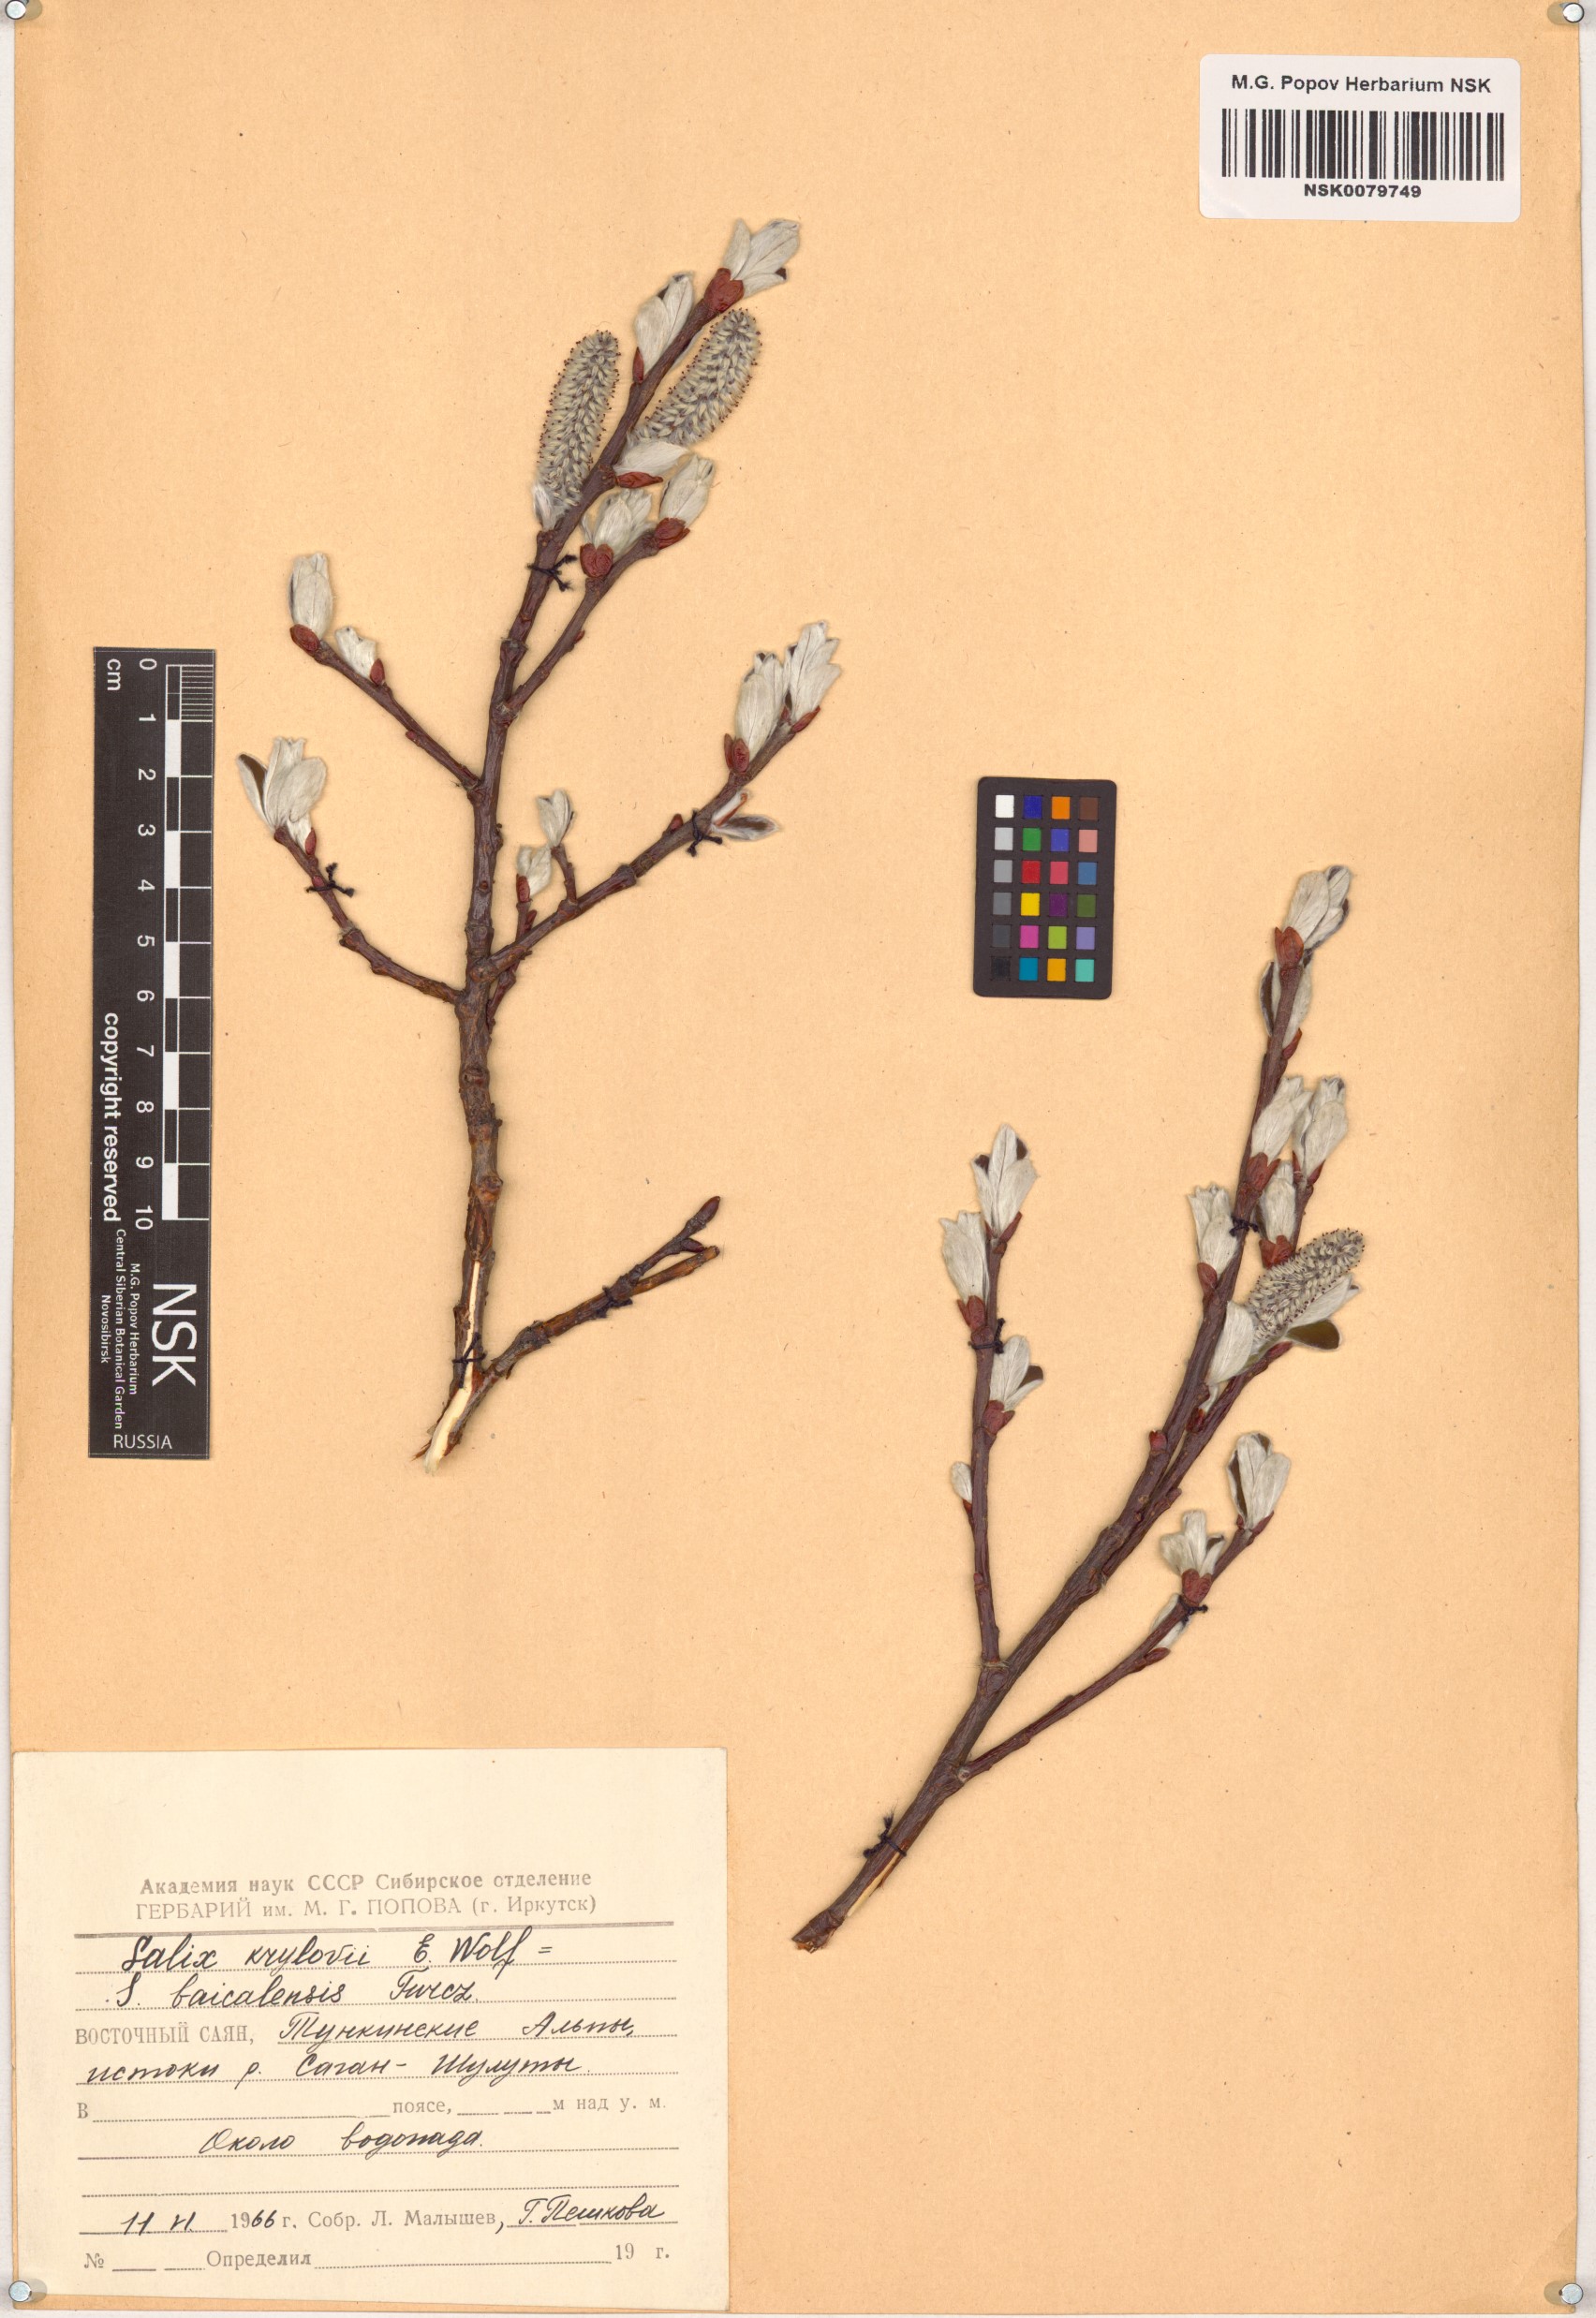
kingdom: Plantae
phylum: Tracheophyta
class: Magnoliopsida
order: Malpighiales
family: Salicaceae
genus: Salix
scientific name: Salix krylovii
